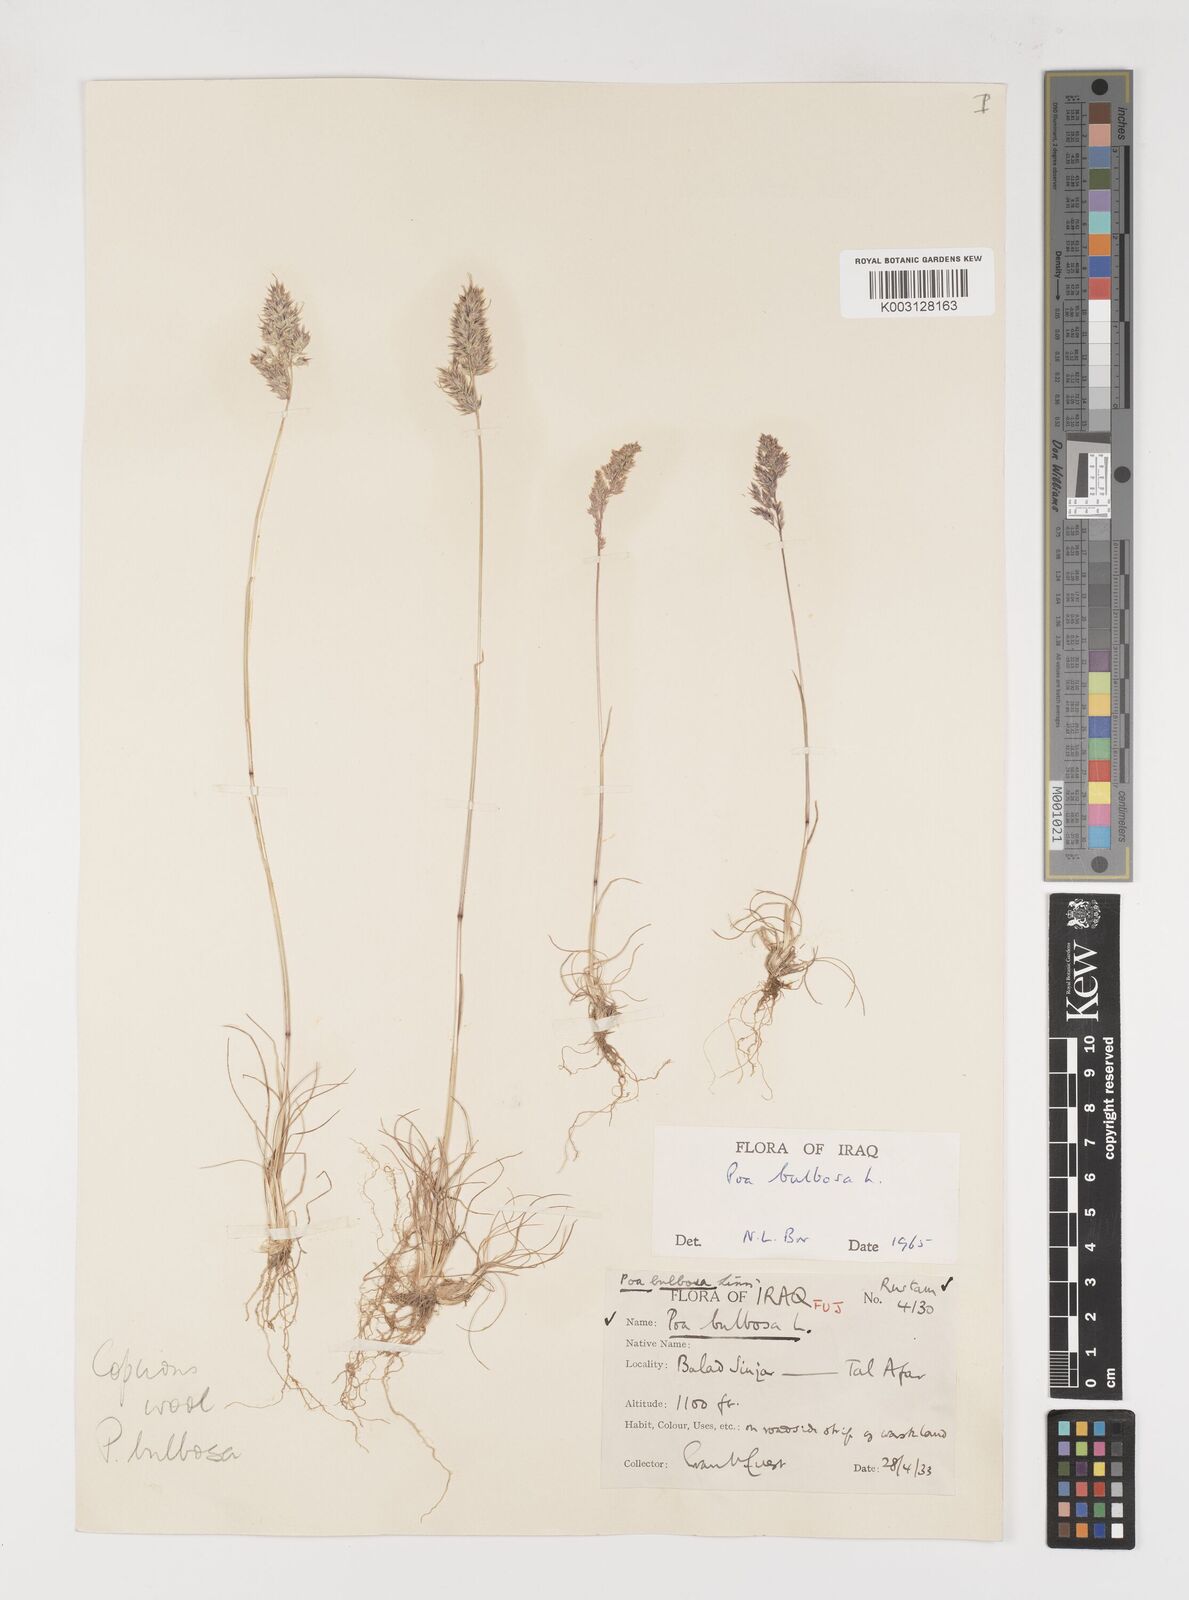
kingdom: Plantae
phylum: Tracheophyta
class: Liliopsida
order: Poales
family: Poaceae
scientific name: Poaceae
